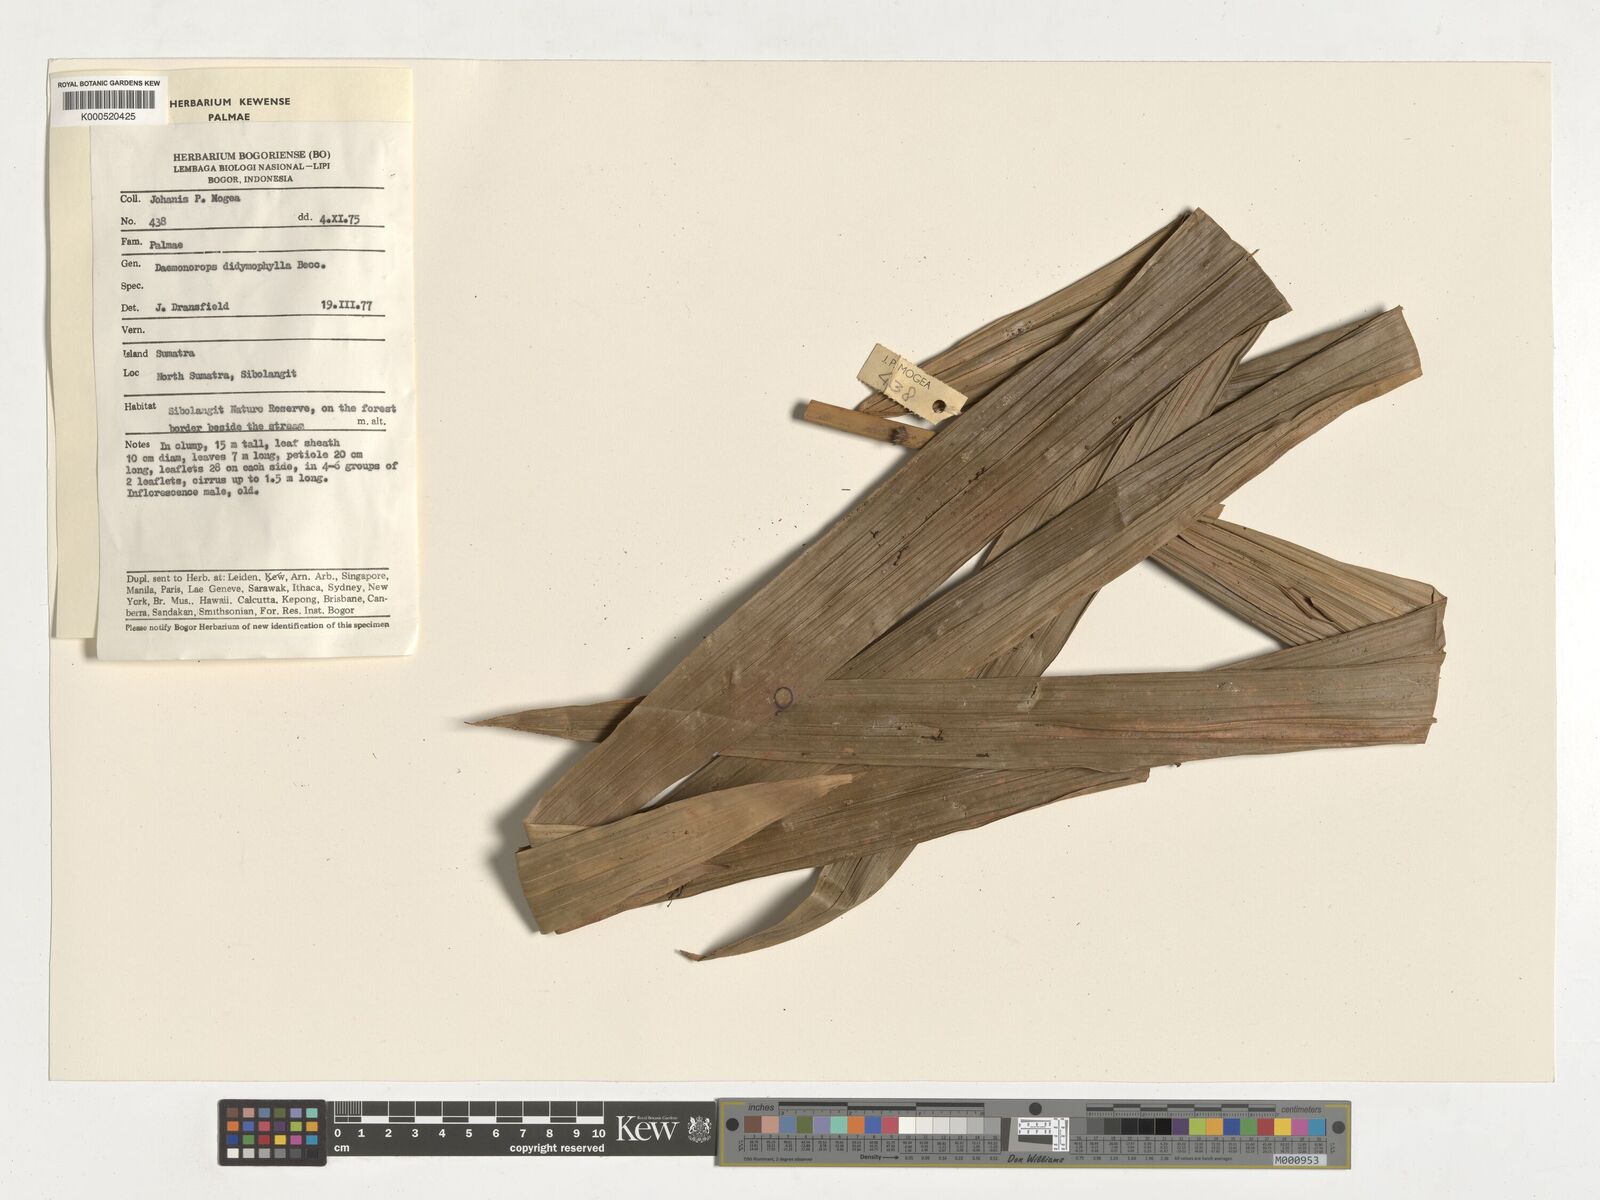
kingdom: Plantae
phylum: Tracheophyta
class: Liliopsida
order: Arecales
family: Arecaceae
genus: Calamus
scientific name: Calamus gracilipes
